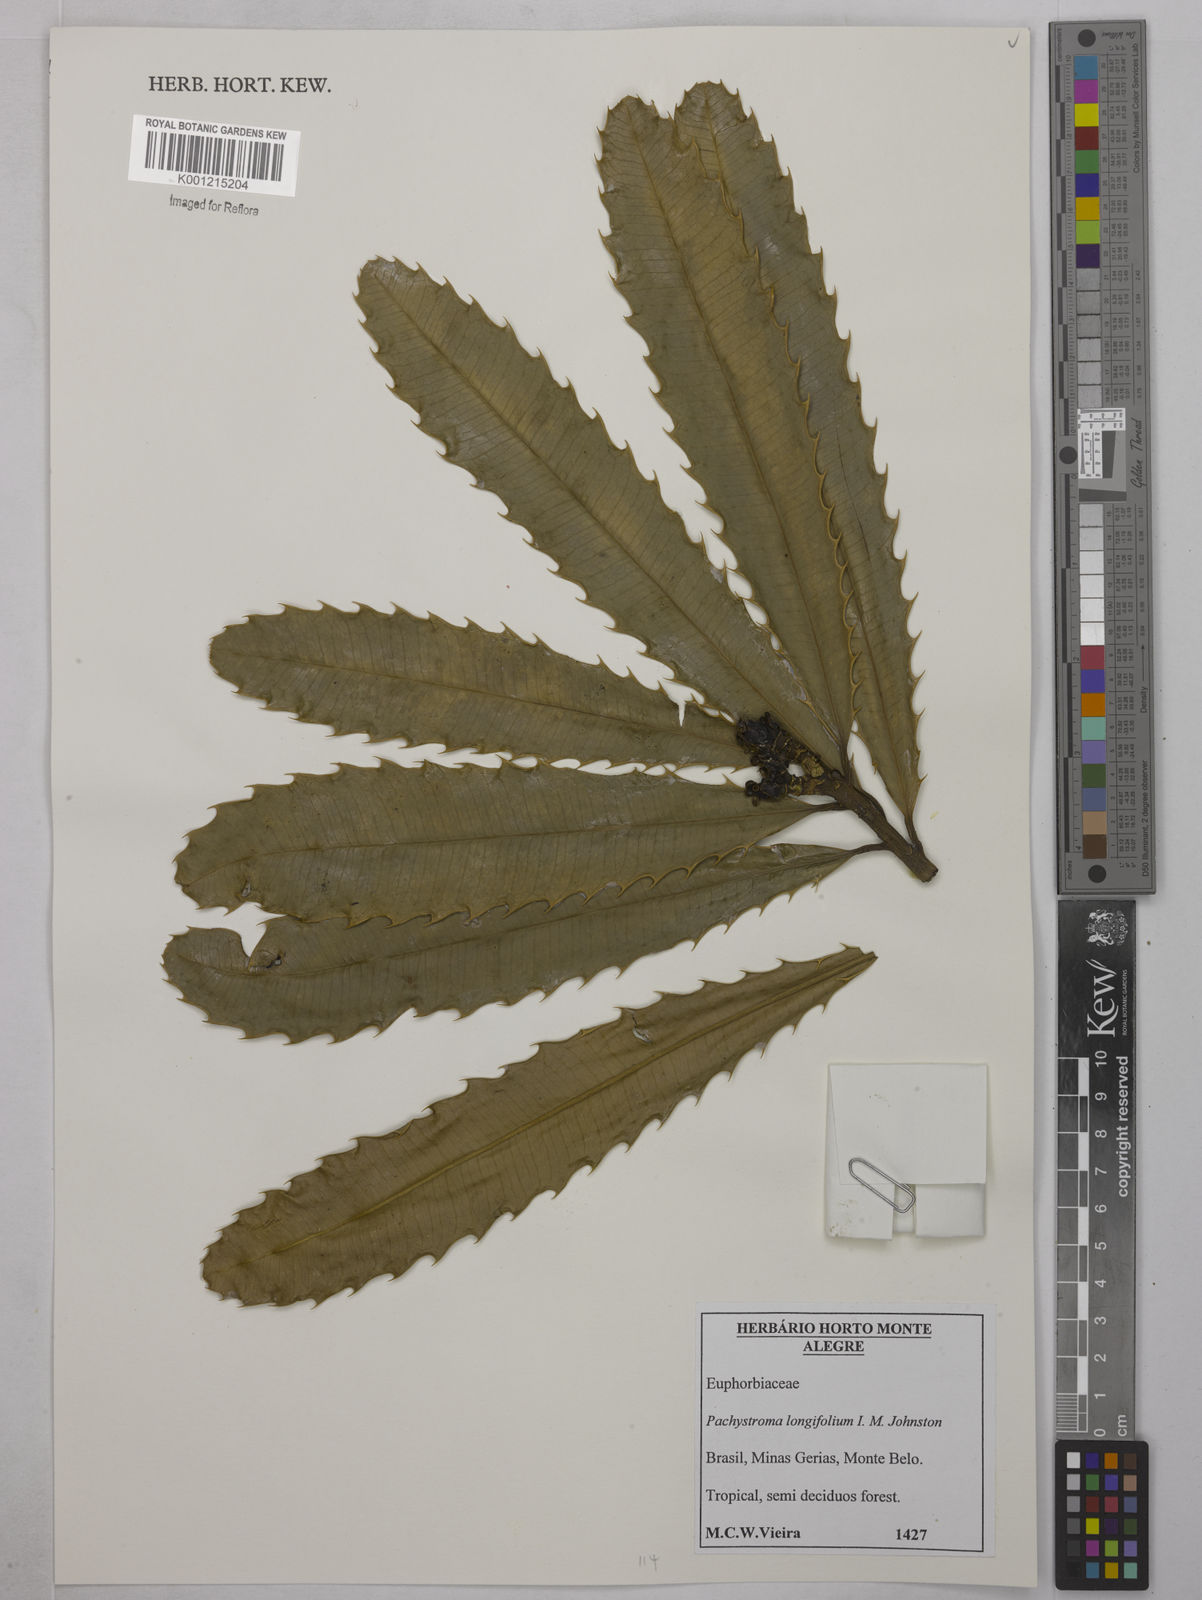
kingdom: Plantae
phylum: Tracheophyta
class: Magnoliopsida
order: Malpighiales
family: Euphorbiaceae
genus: Pachystroma
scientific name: Pachystroma longifolium
